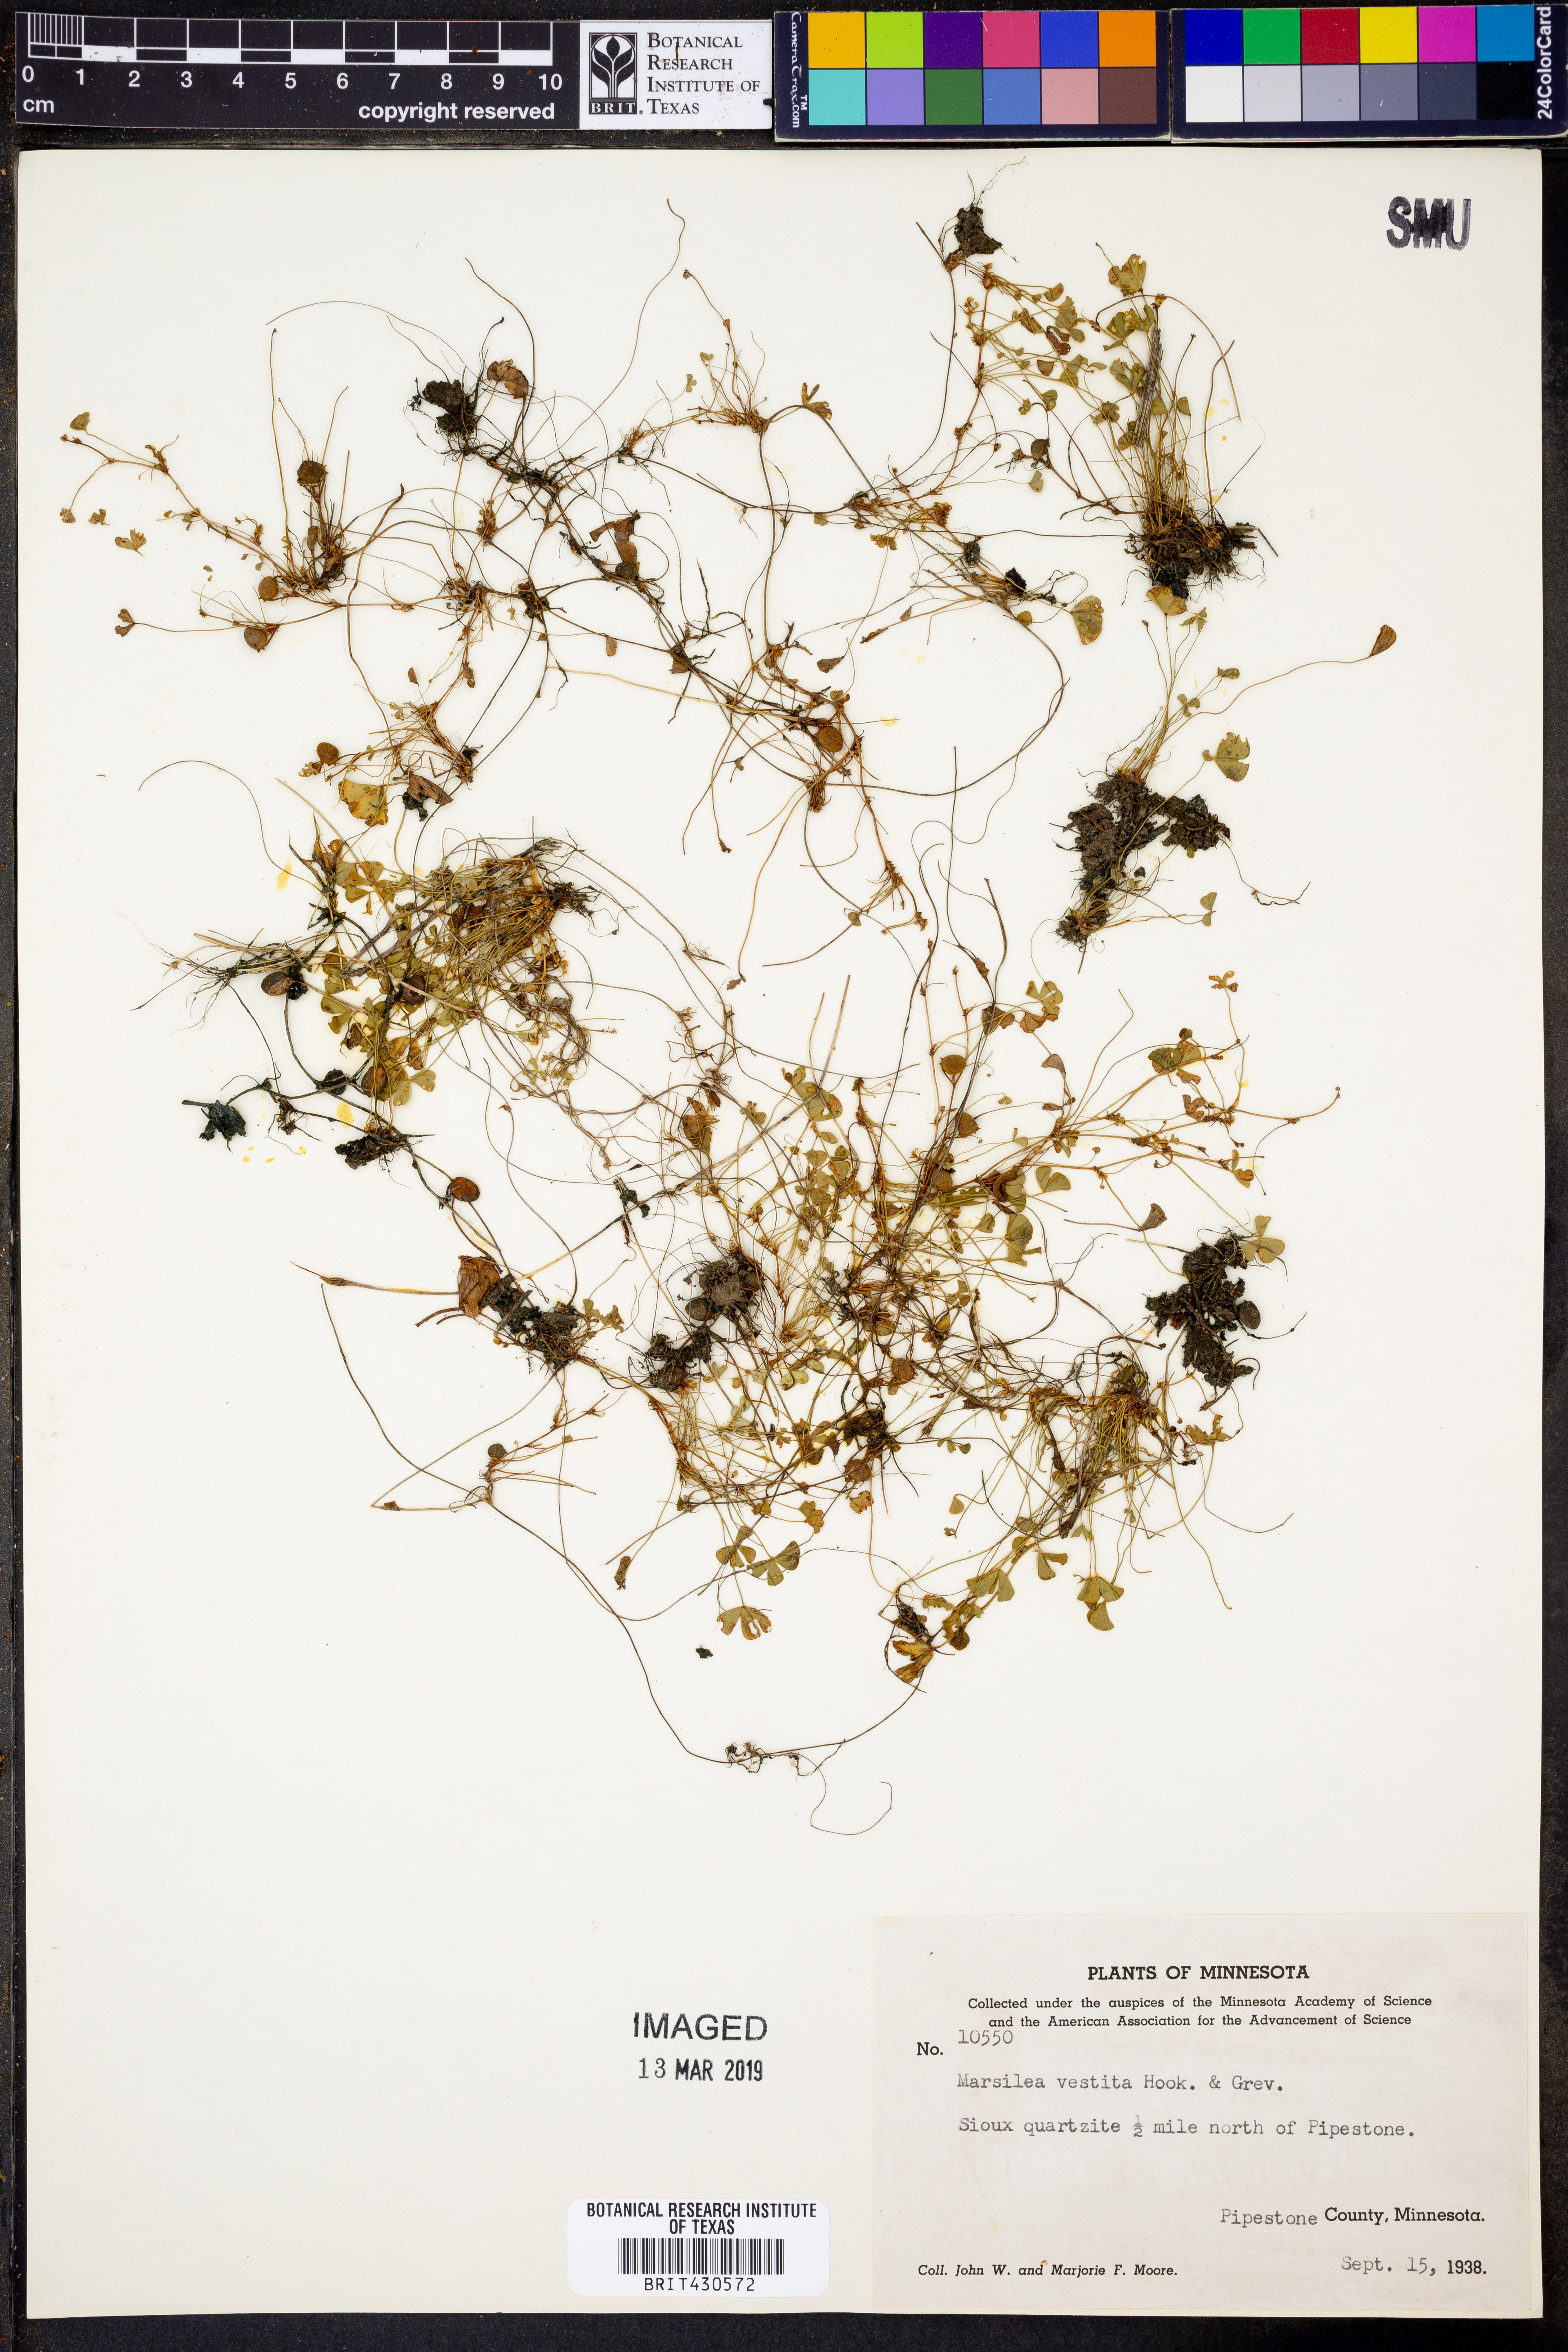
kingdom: Plantae
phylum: Tracheophyta
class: Polypodiopsida
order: Salviniales
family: Marsileaceae
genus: Marsilea
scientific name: Marsilea vestita
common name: Hooked-pepperwort
